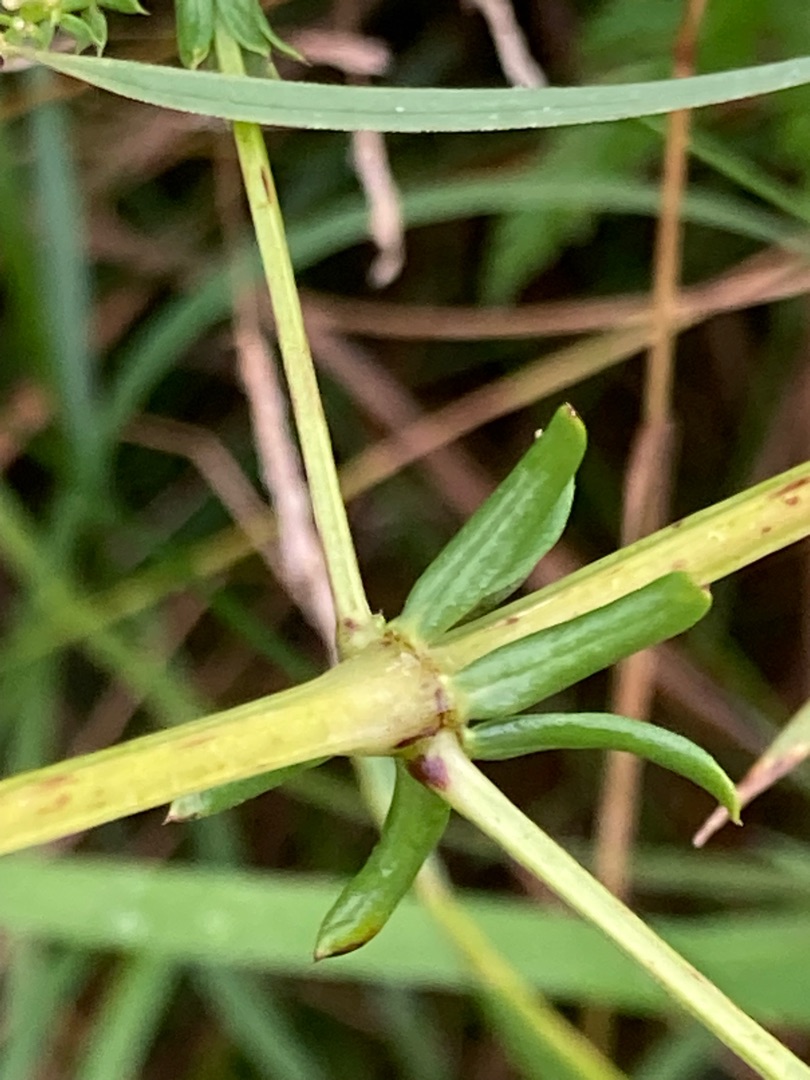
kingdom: Plantae
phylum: Tracheophyta
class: Magnoliopsida
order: Gentianales
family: Rubiaceae
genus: Galium
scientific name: Galium mollugo
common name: Hvid snerre
